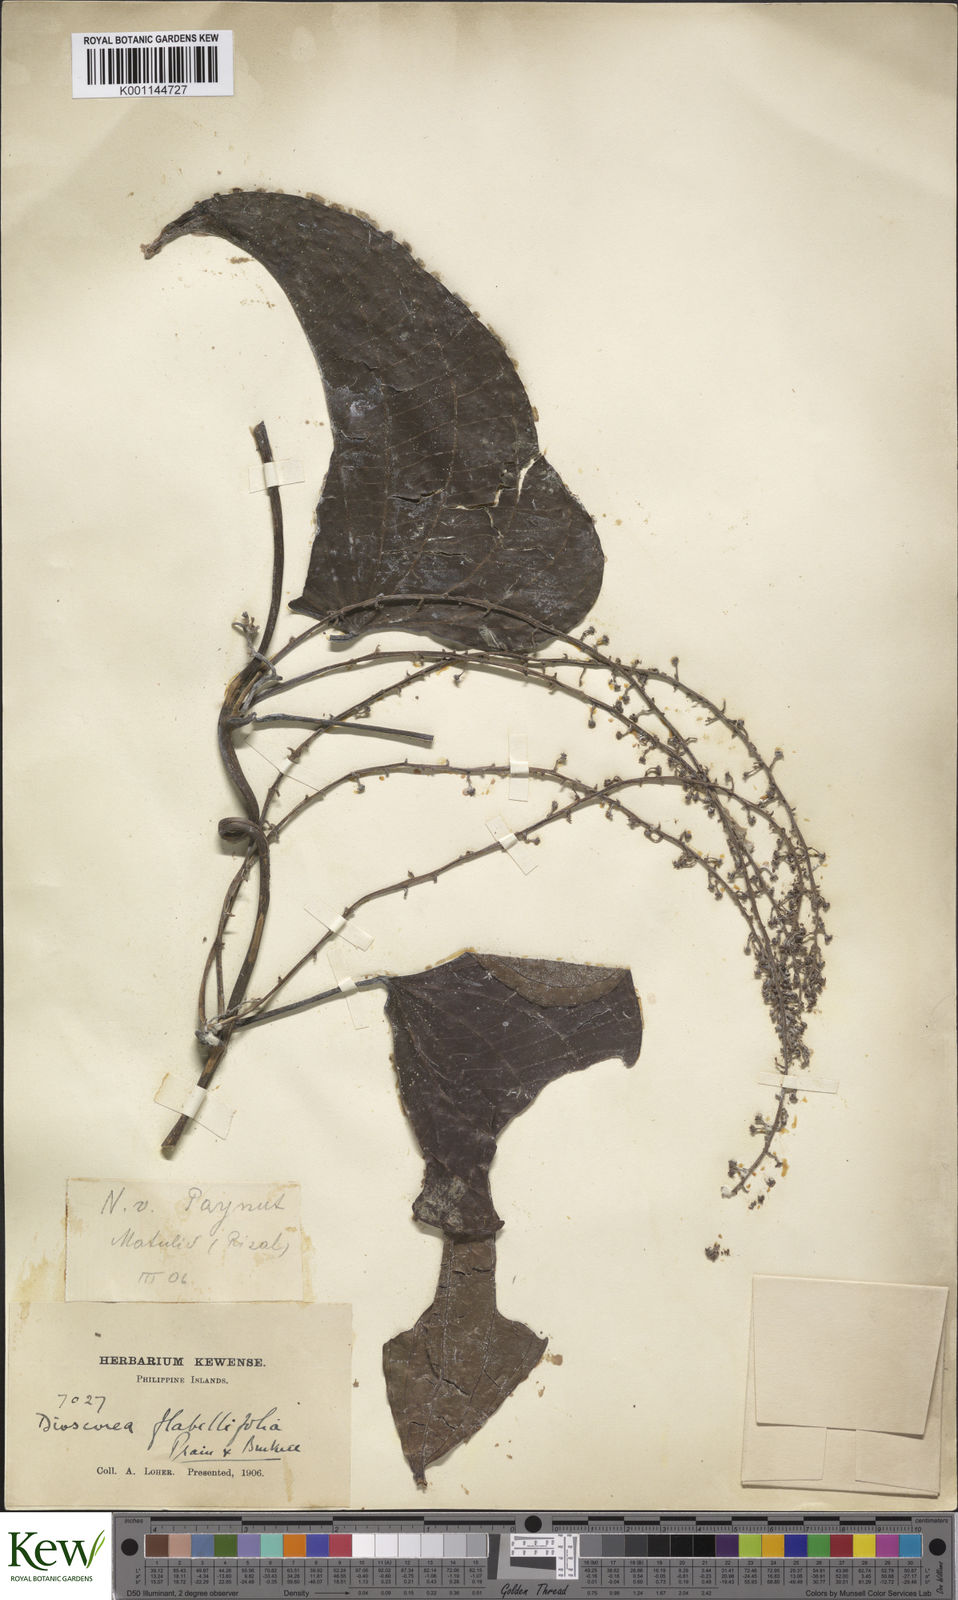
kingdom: Plantae
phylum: Tracheophyta
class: Liliopsida
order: Dioscoreales
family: Dioscoreaceae
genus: Dioscorea
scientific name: Dioscorea flabellifolia
